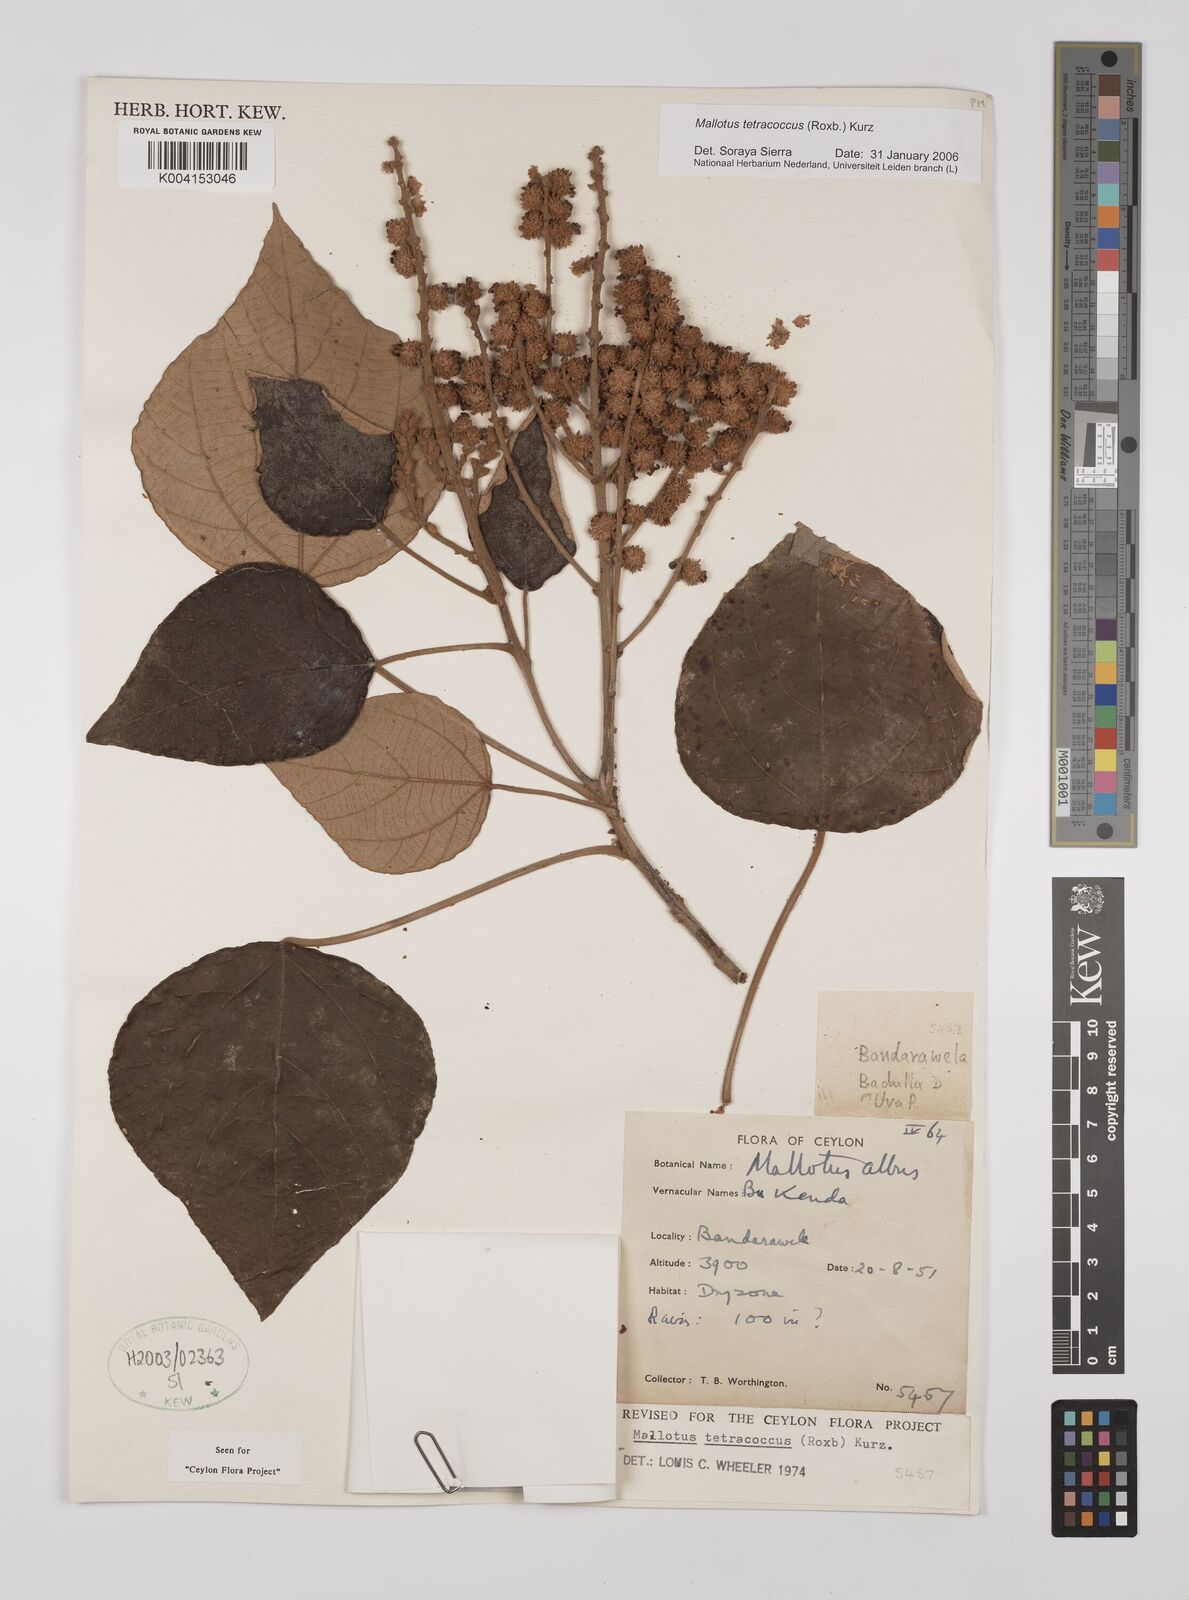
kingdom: Plantae
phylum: Tracheophyta
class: Magnoliopsida
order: Malpighiales
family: Euphorbiaceae
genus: Mallotus
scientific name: Mallotus tetracoccus
